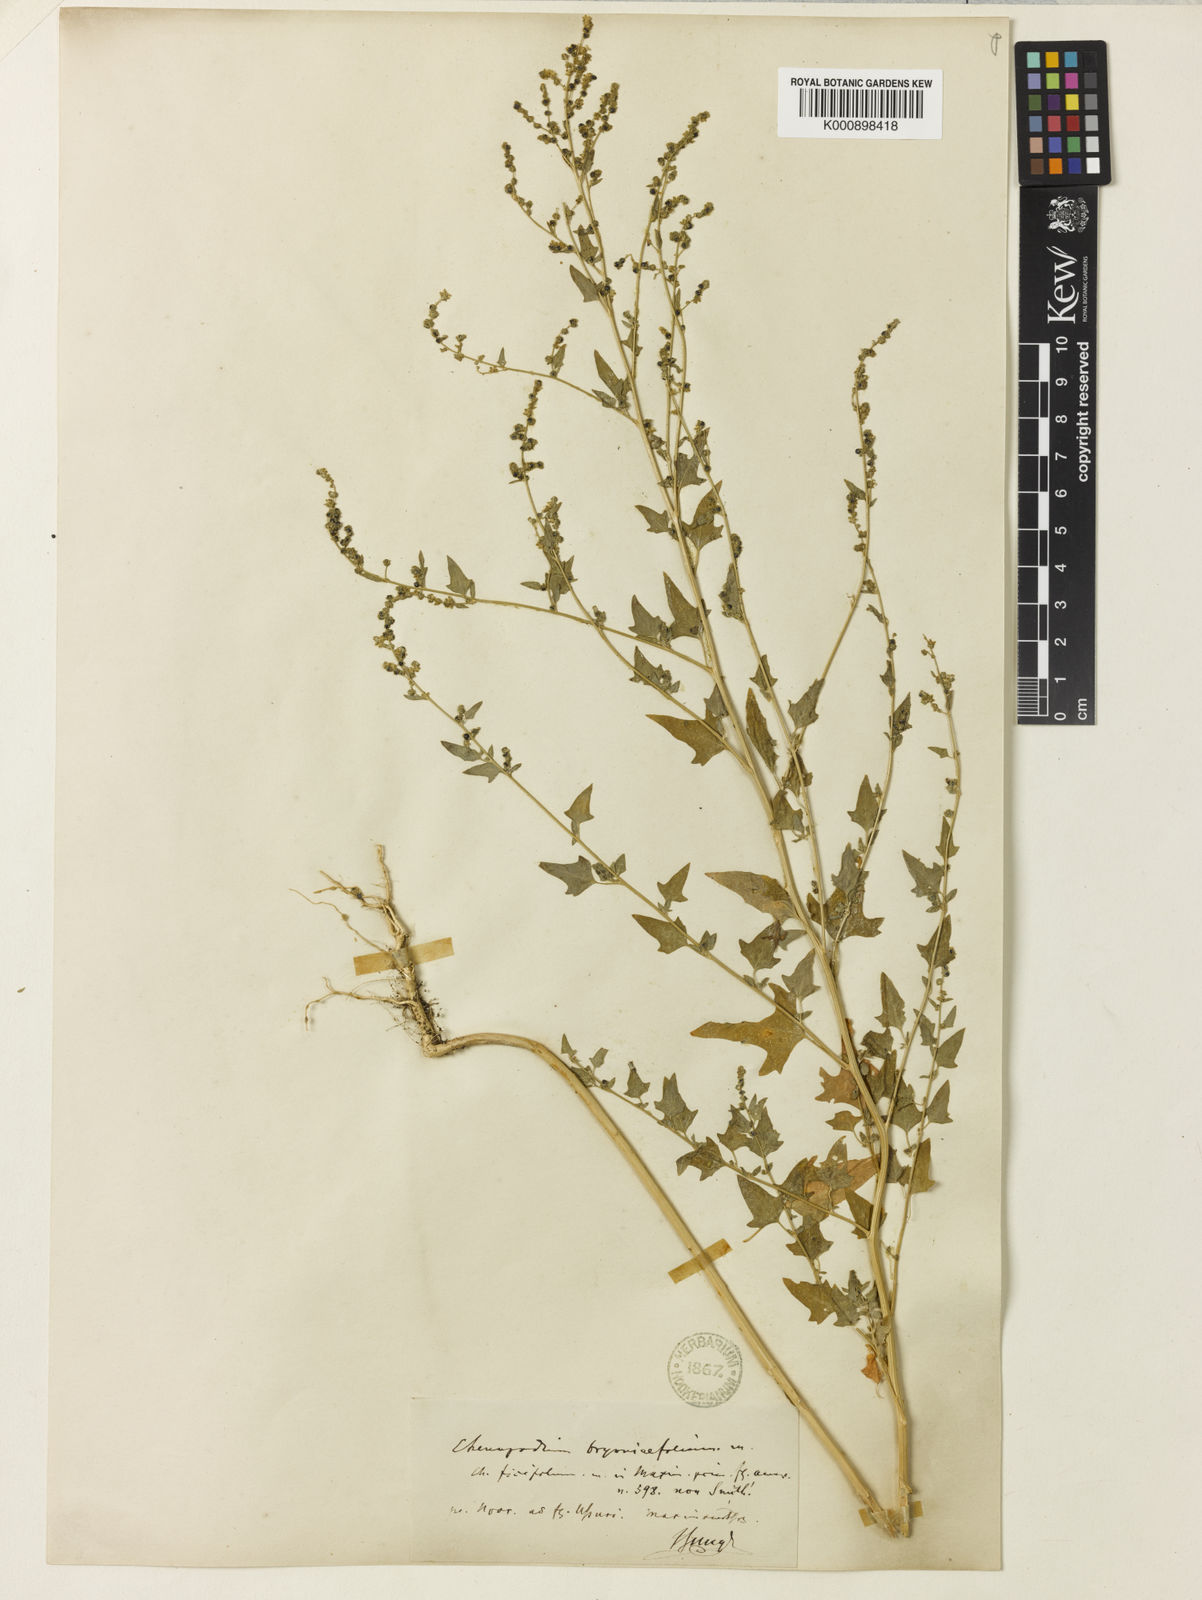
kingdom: Plantae
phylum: Tracheophyta
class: Magnoliopsida
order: Caryophyllales
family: Amaranthaceae
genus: Chenopodium
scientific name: Chenopodium bryoniifolium
